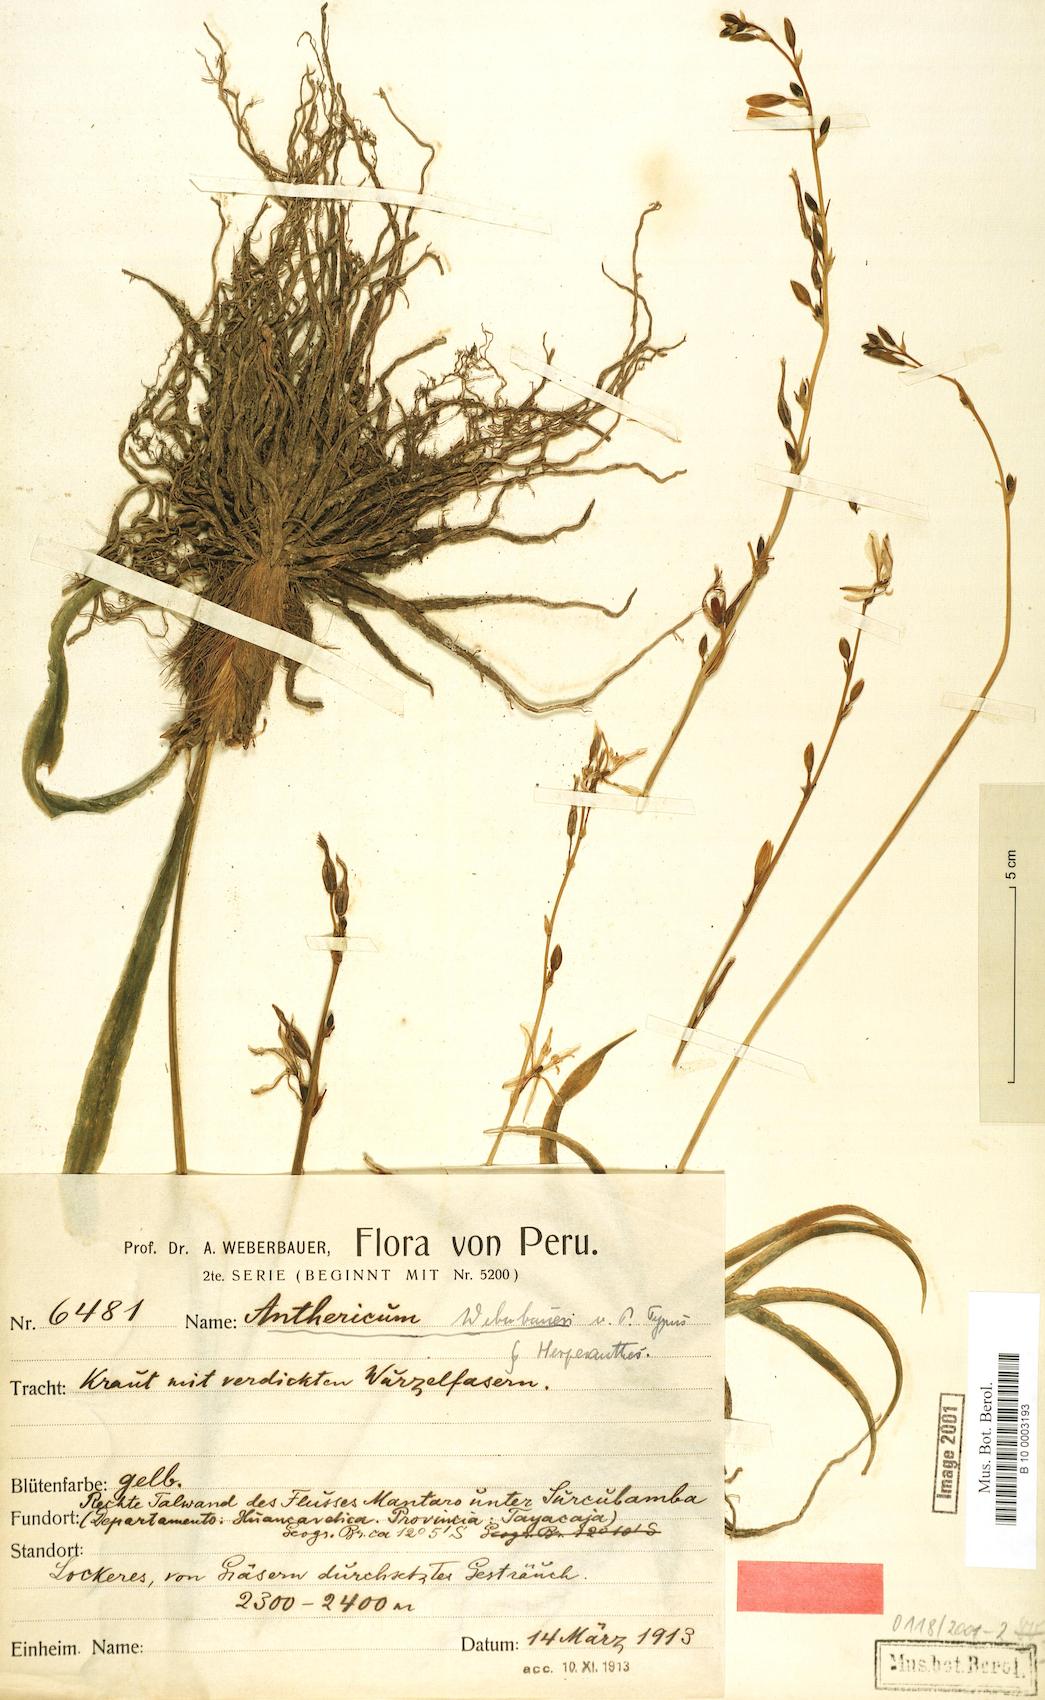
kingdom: Plantae
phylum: Tracheophyta
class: Liliopsida
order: Asparagales
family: Asparagaceae
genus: Echeandia
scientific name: Echeandia weberbaueri
